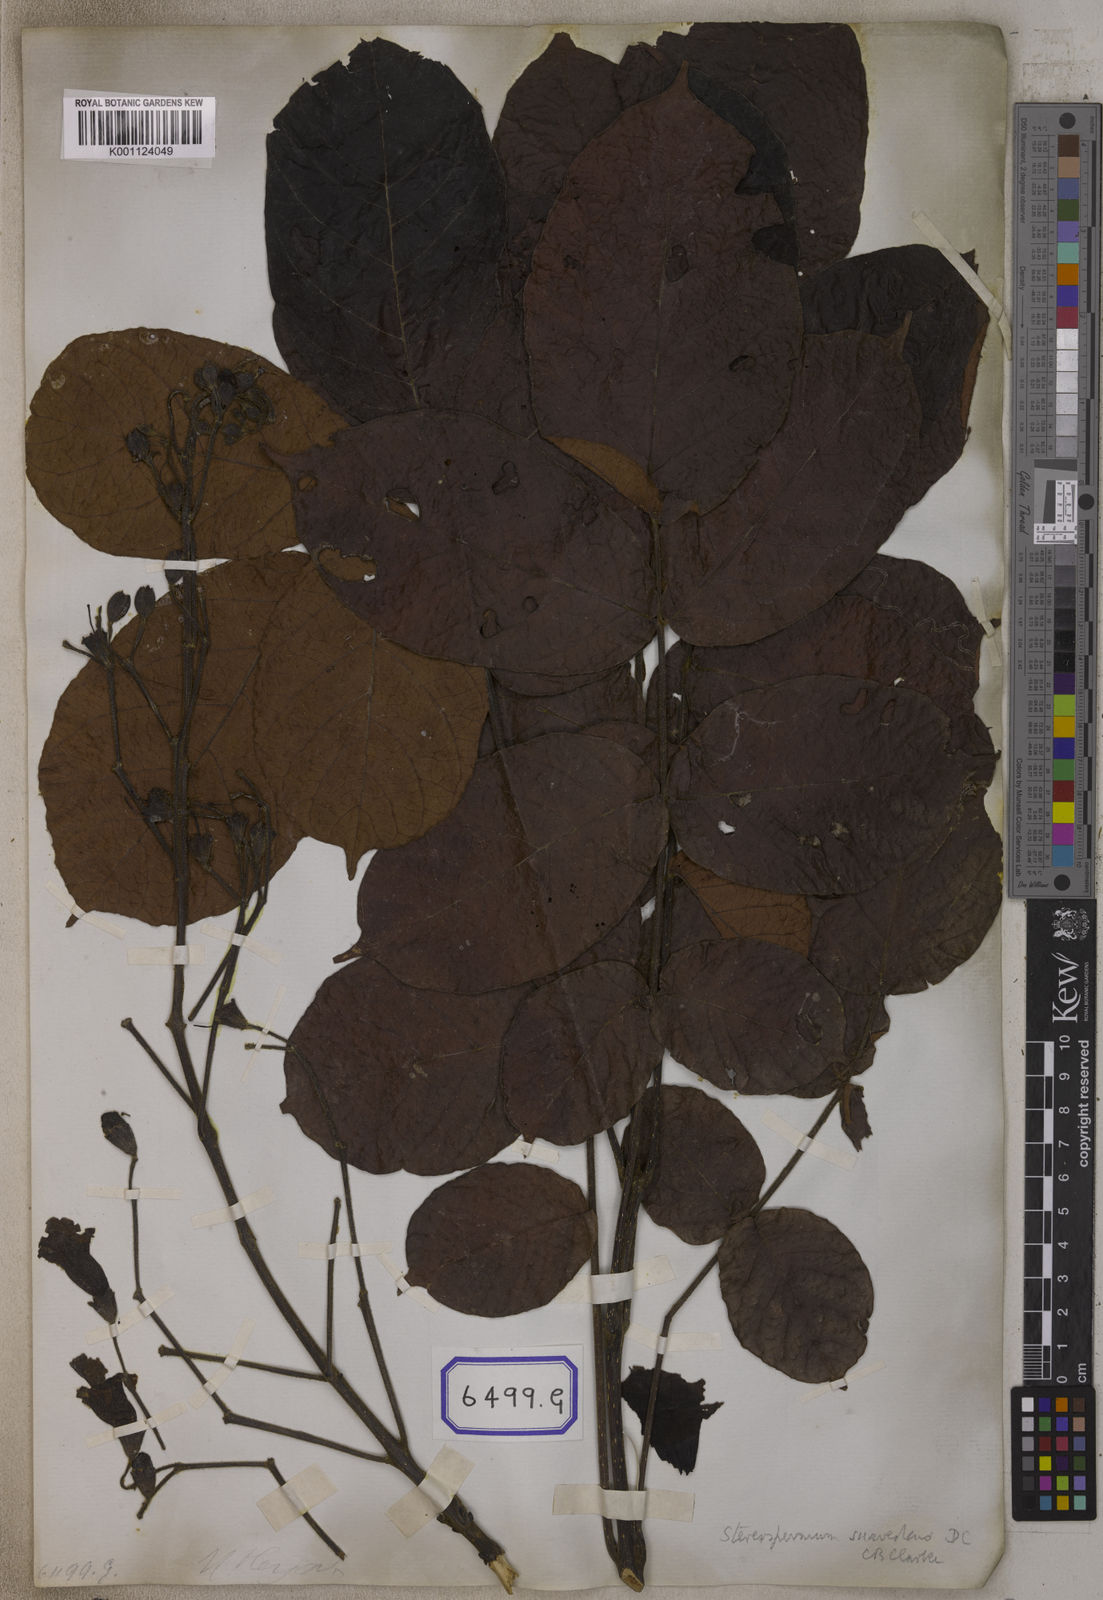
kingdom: Plantae
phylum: Tracheophyta
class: Magnoliopsida
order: Lamiales
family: Bignoniaceae
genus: Stereospermum
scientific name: Stereospermum chelonoides
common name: Fragrant padritree
